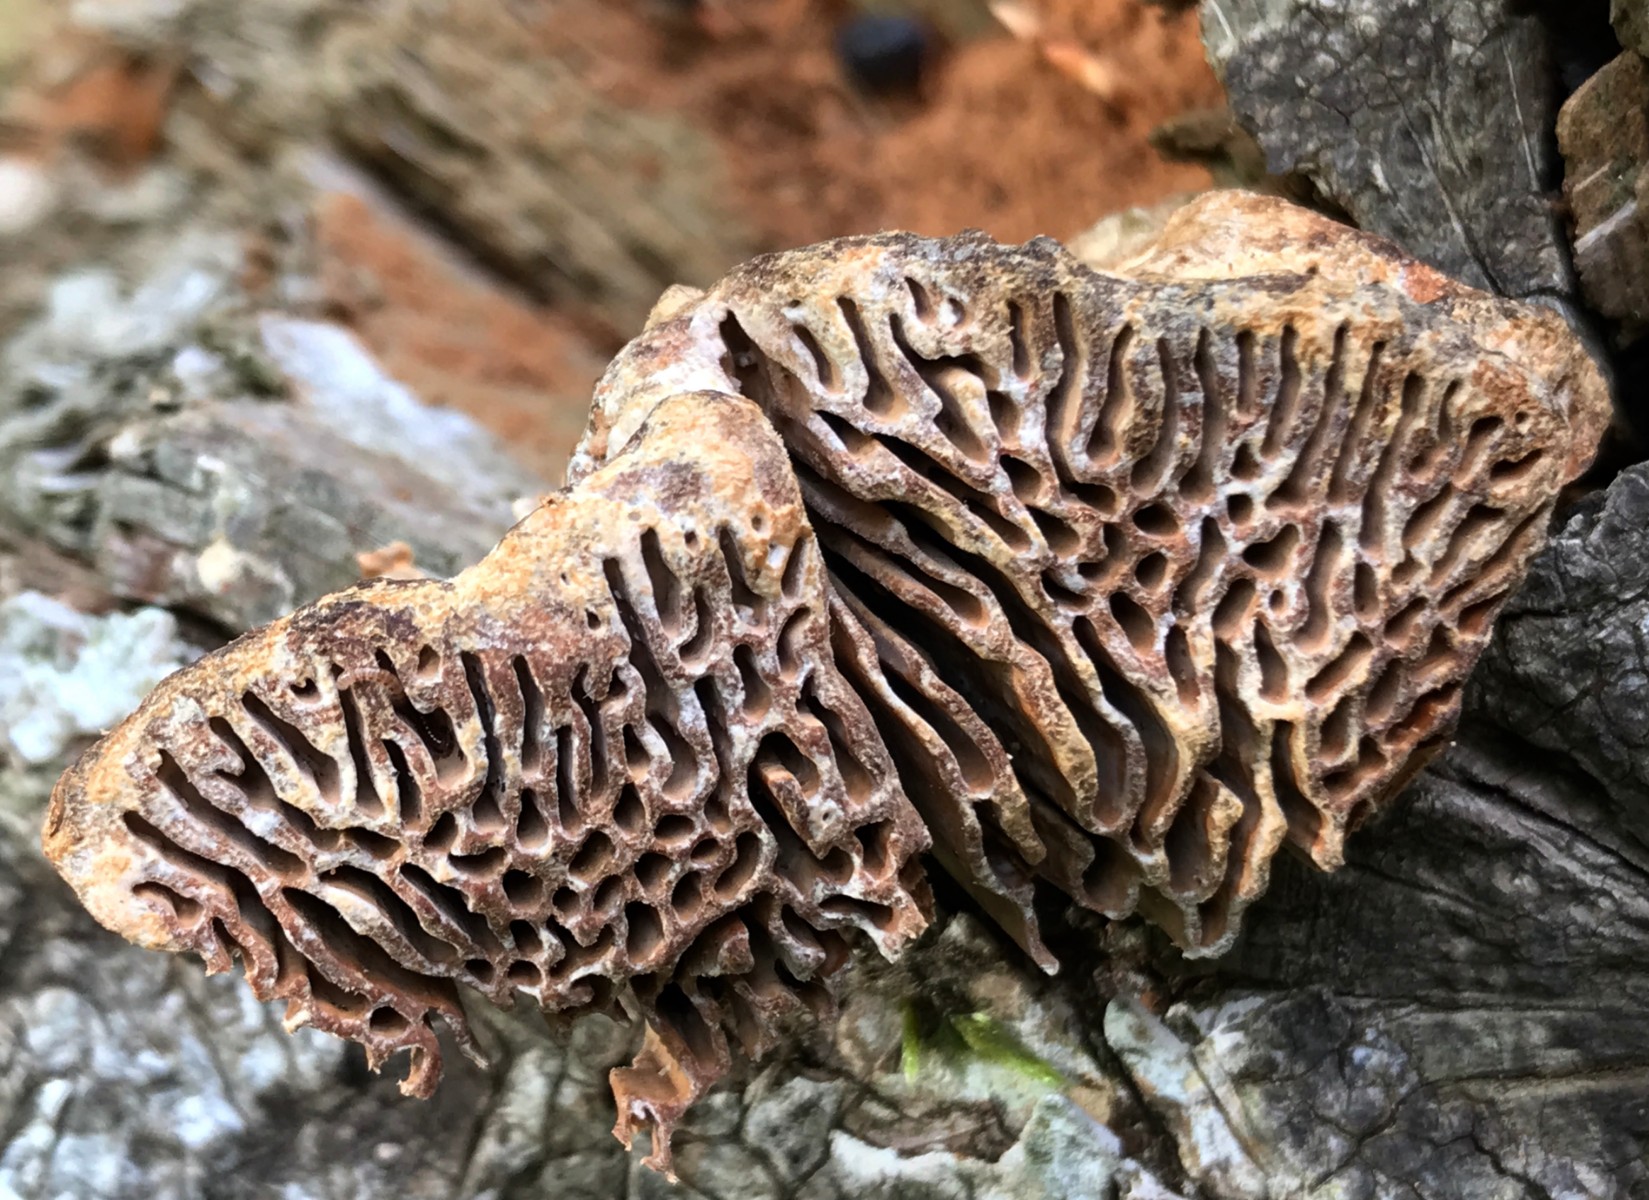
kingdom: Fungi
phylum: Basidiomycota
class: Agaricomycetes
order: Polyporales
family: Fomitopsidaceae
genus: Daedalea
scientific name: Daedalea quercina
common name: ege-labyrintsvamp
